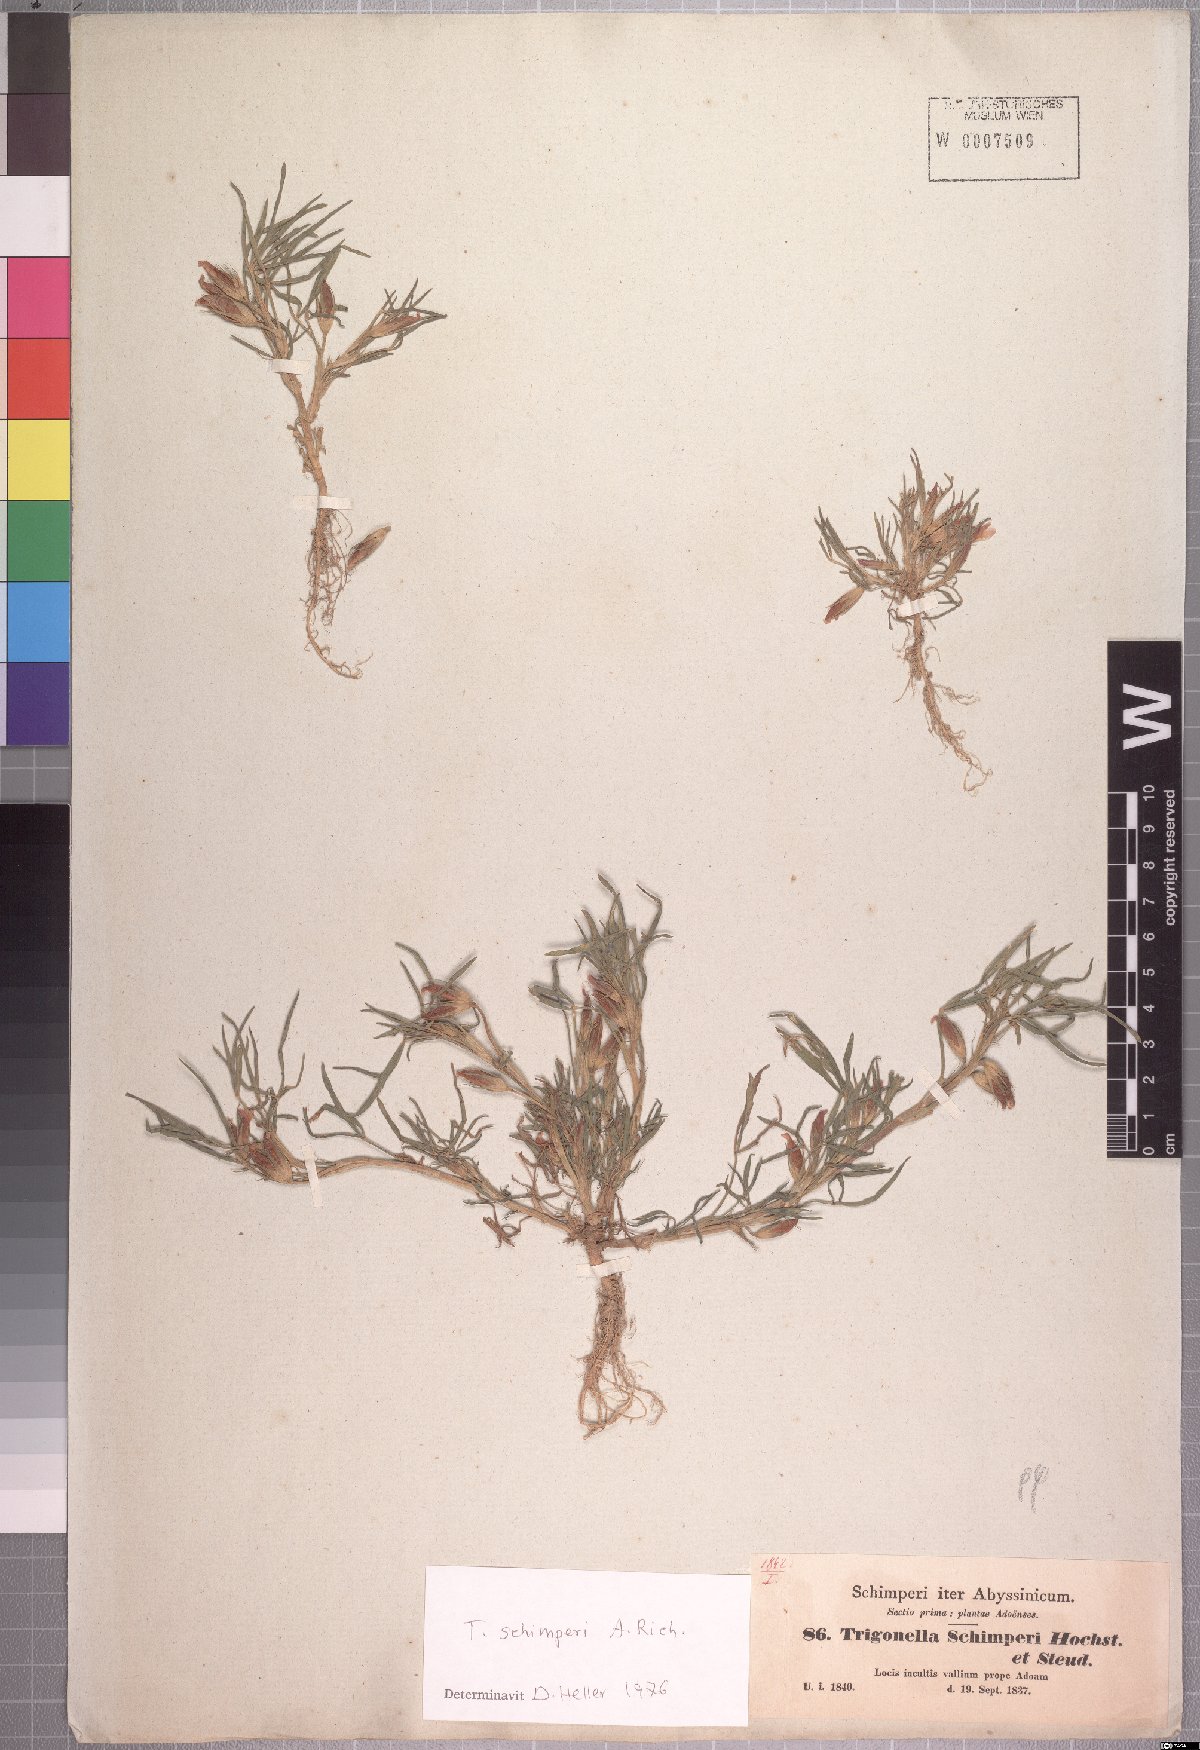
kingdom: Plantae
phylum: Tracheophyta
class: Magnoliopsida
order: Fabales
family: Fabaceae
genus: Trifolium
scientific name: Trifolium schimperi
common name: Schimper's clover
